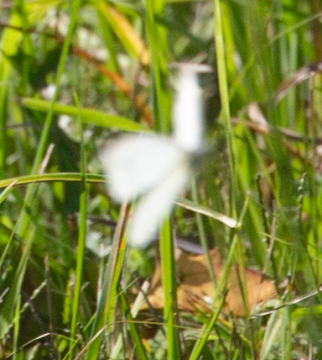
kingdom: Animalia
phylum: Arthropoda
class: Insecta
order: Lepidoptera
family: Pieridae
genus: Pieris
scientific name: Pieris rapae
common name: Cabbage White
